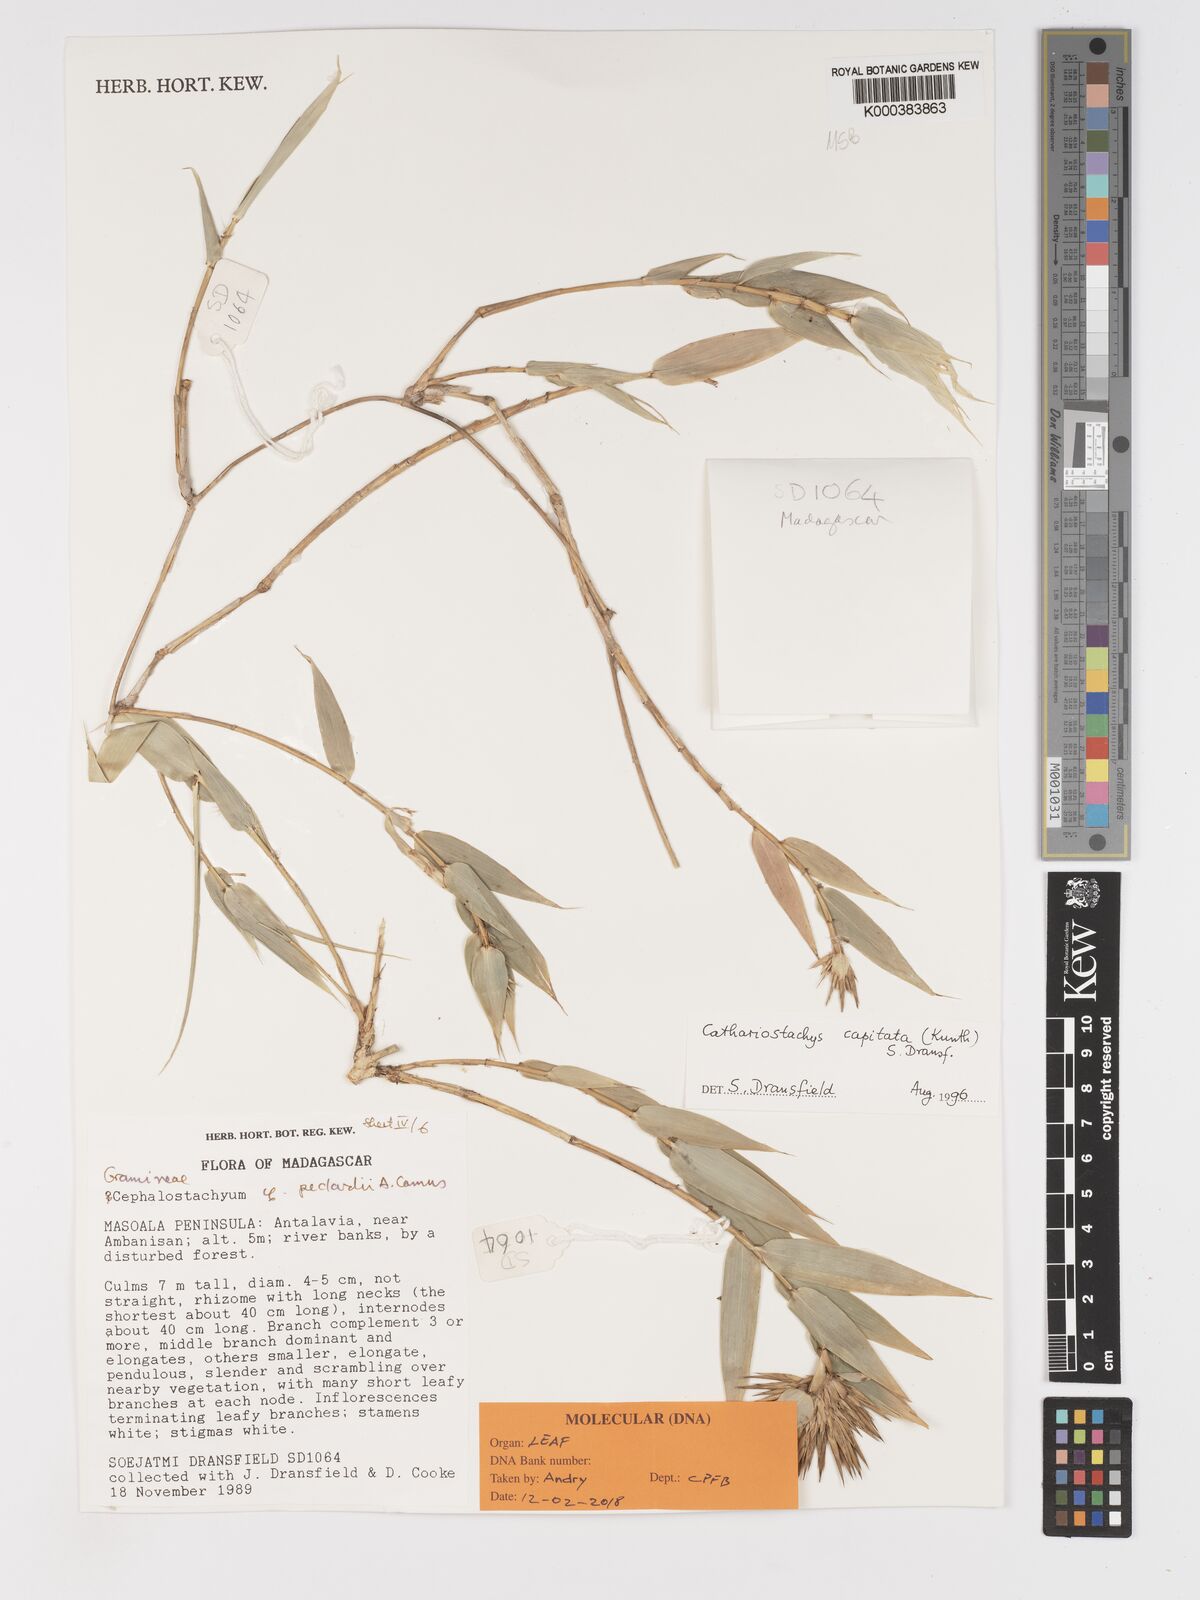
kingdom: Plantae
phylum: Tracheophyta
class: Liliopsida
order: Poales
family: Poaceae
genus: Cathariostachys
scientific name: Cathariostachys capitata
